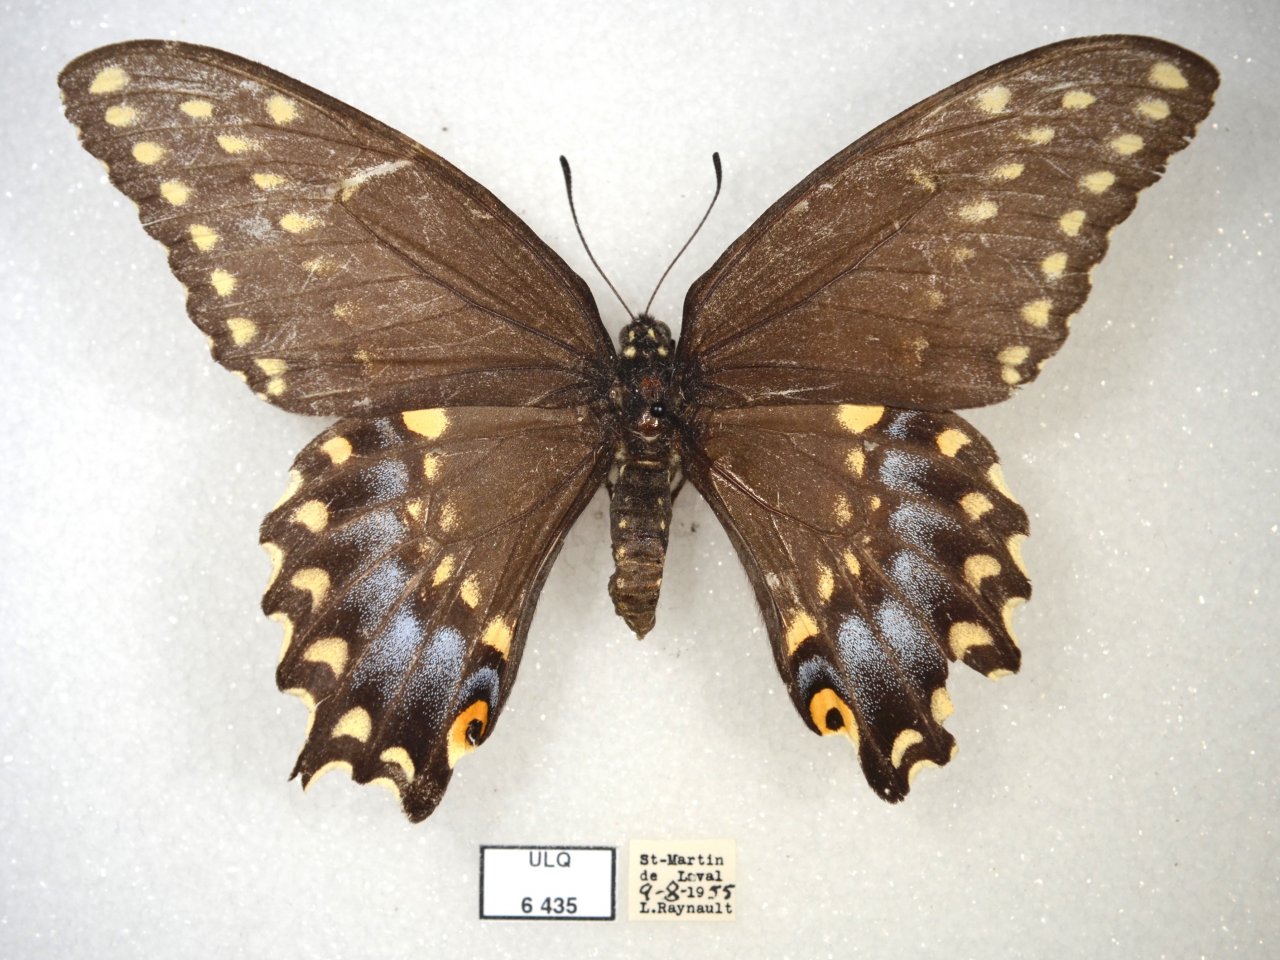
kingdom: Animalia
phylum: Arthropoda
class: Insecta
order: Lepidoptera
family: Papilionidae
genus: Papilio
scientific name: Papilio polyxenes
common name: Black Swallowtail
